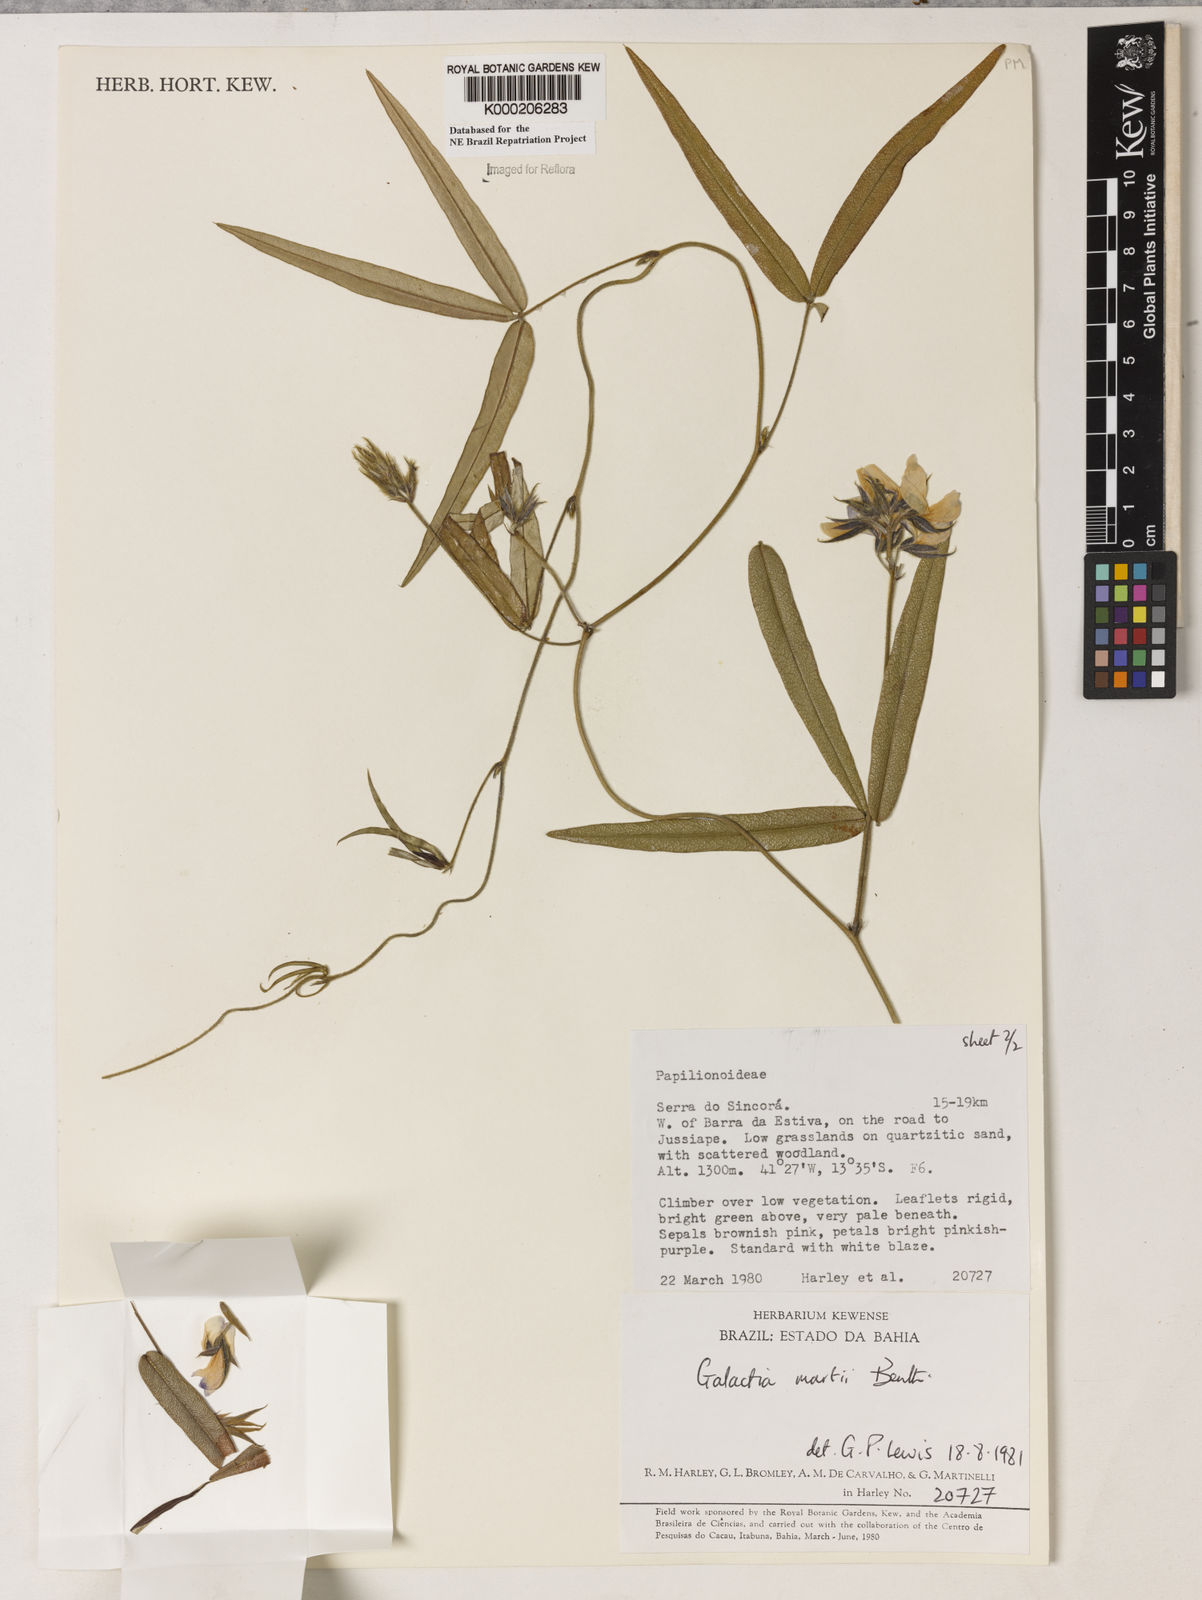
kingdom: Plantae
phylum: Tracheophyta
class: Magnoliopsida
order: Fabales
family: Fabaceae
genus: Betencourtia
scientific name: Betencourtia martii
